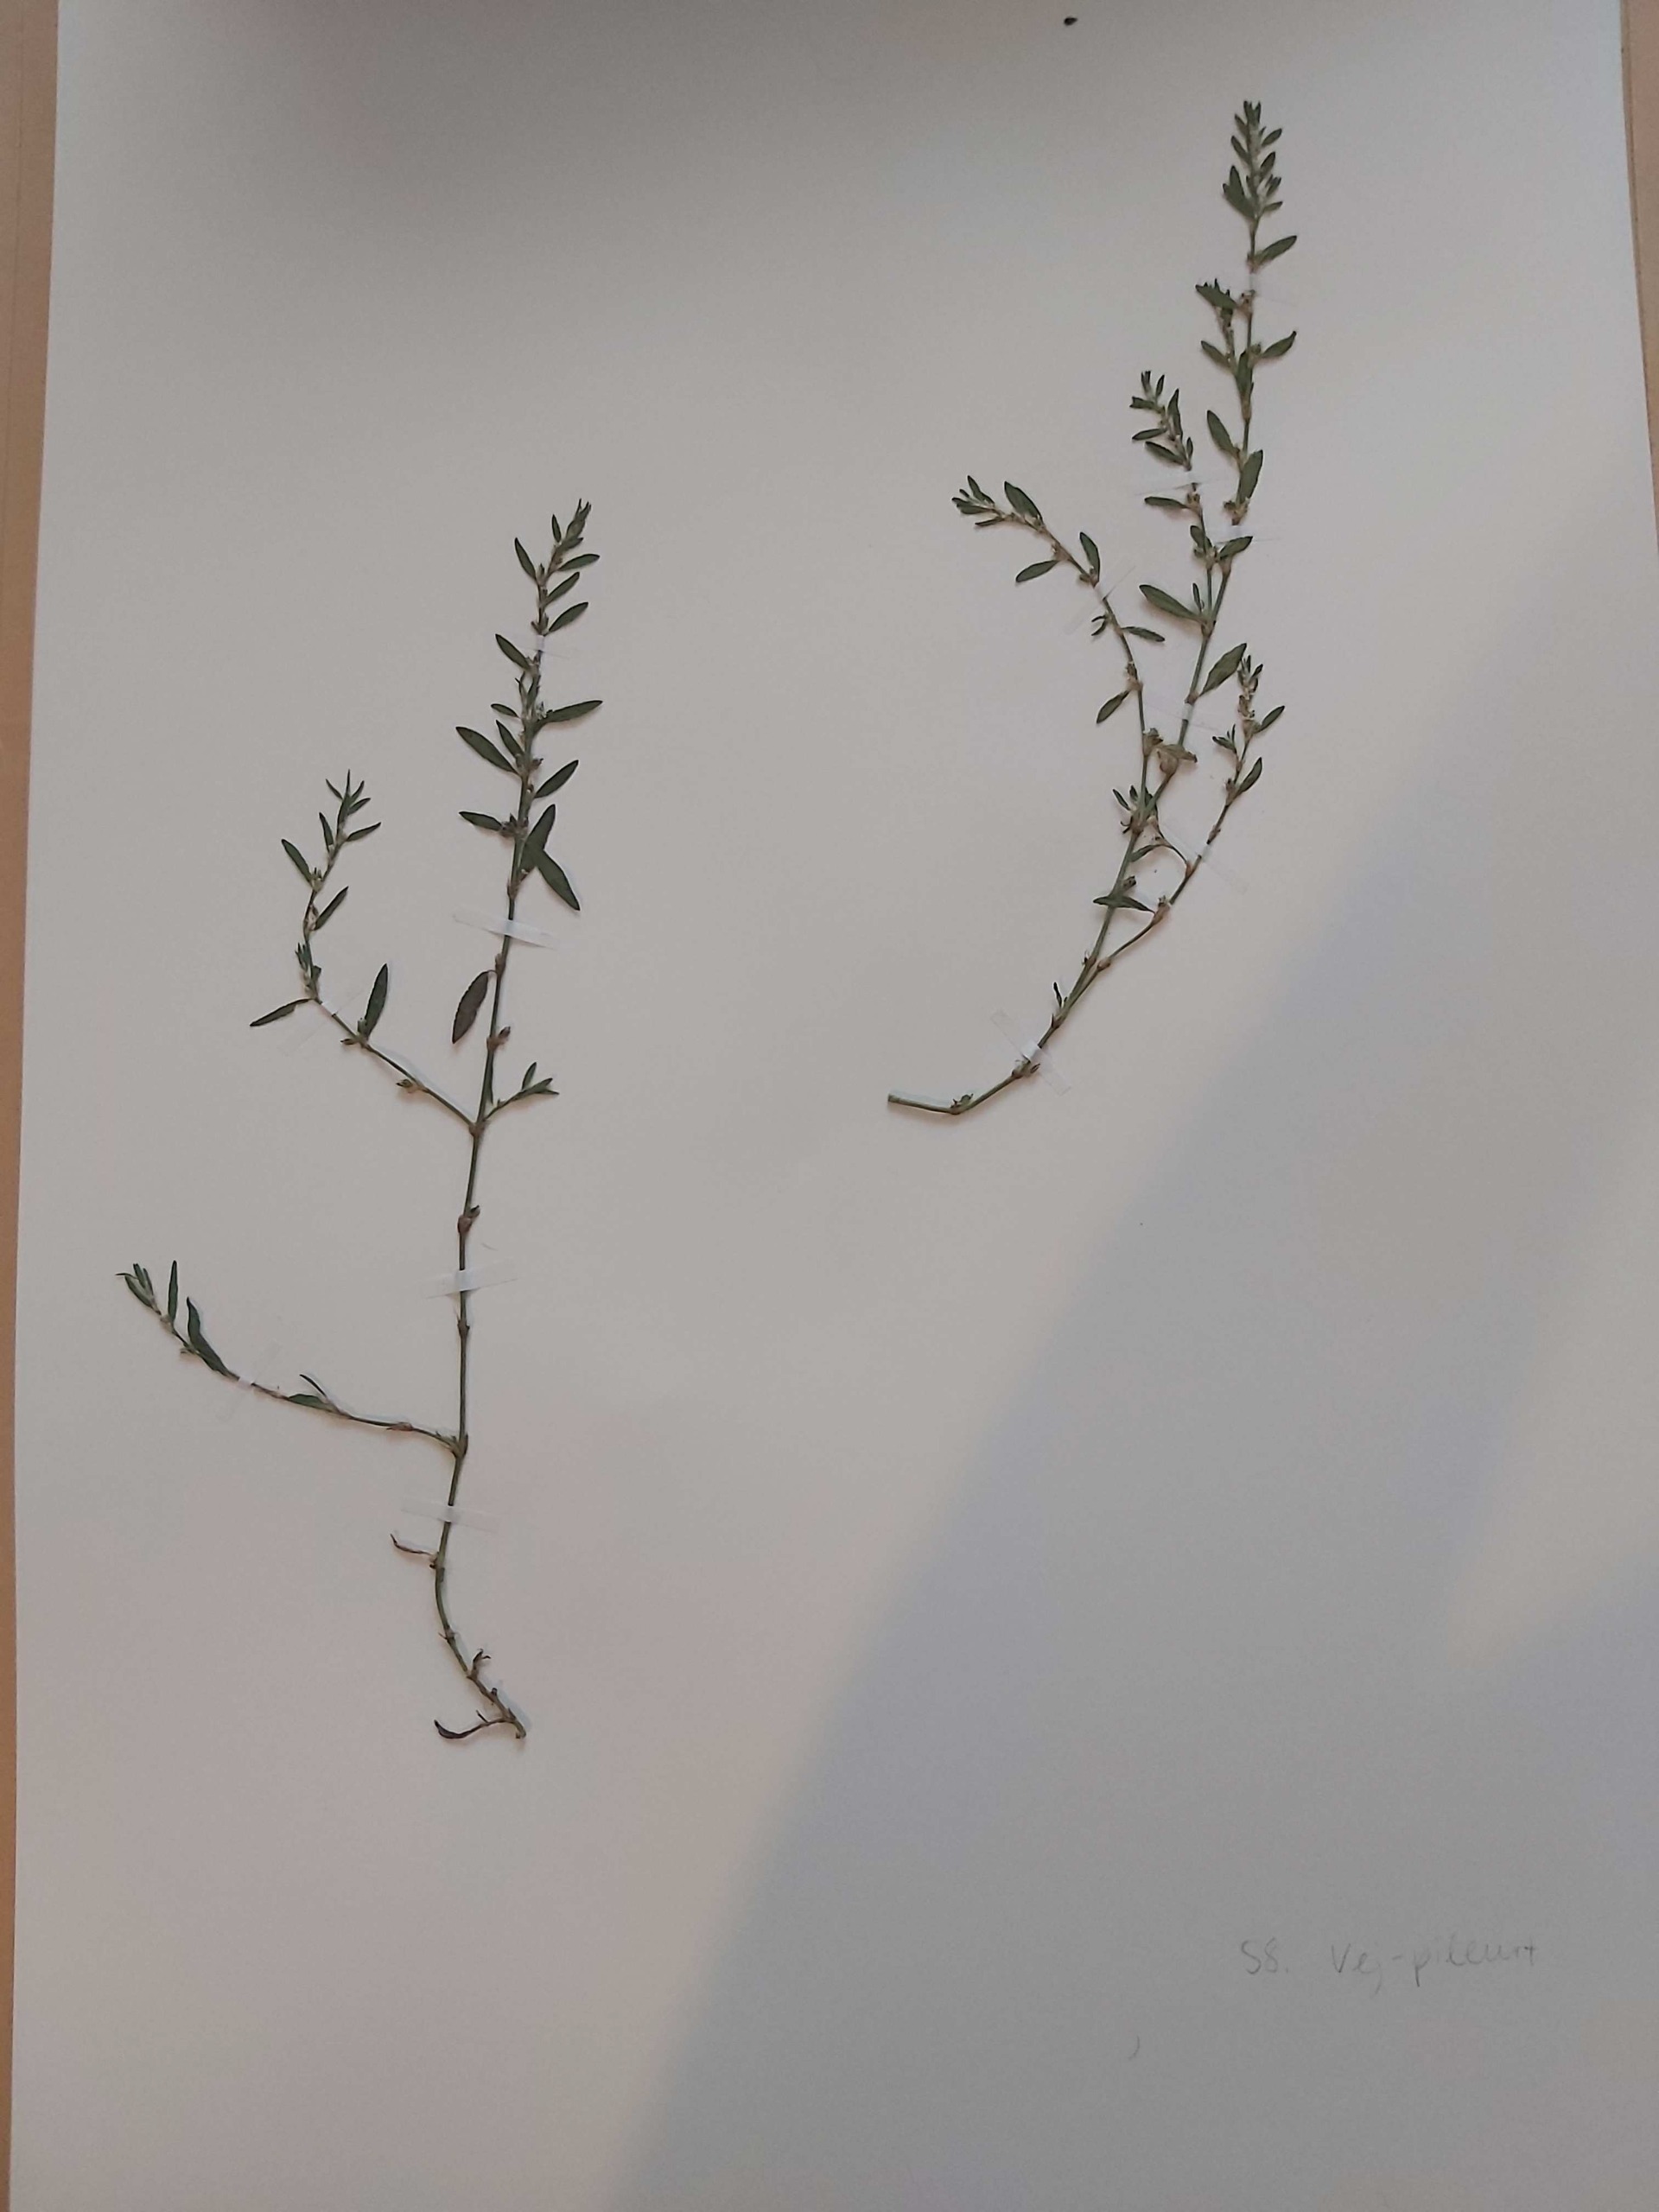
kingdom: Plantae
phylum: Tracheophyta
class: Magnoliopsida
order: Caryophyllales
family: Polygonaceae
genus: Polygonum
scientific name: Polygonum arenastrum
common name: Liggende vej-pileurt
